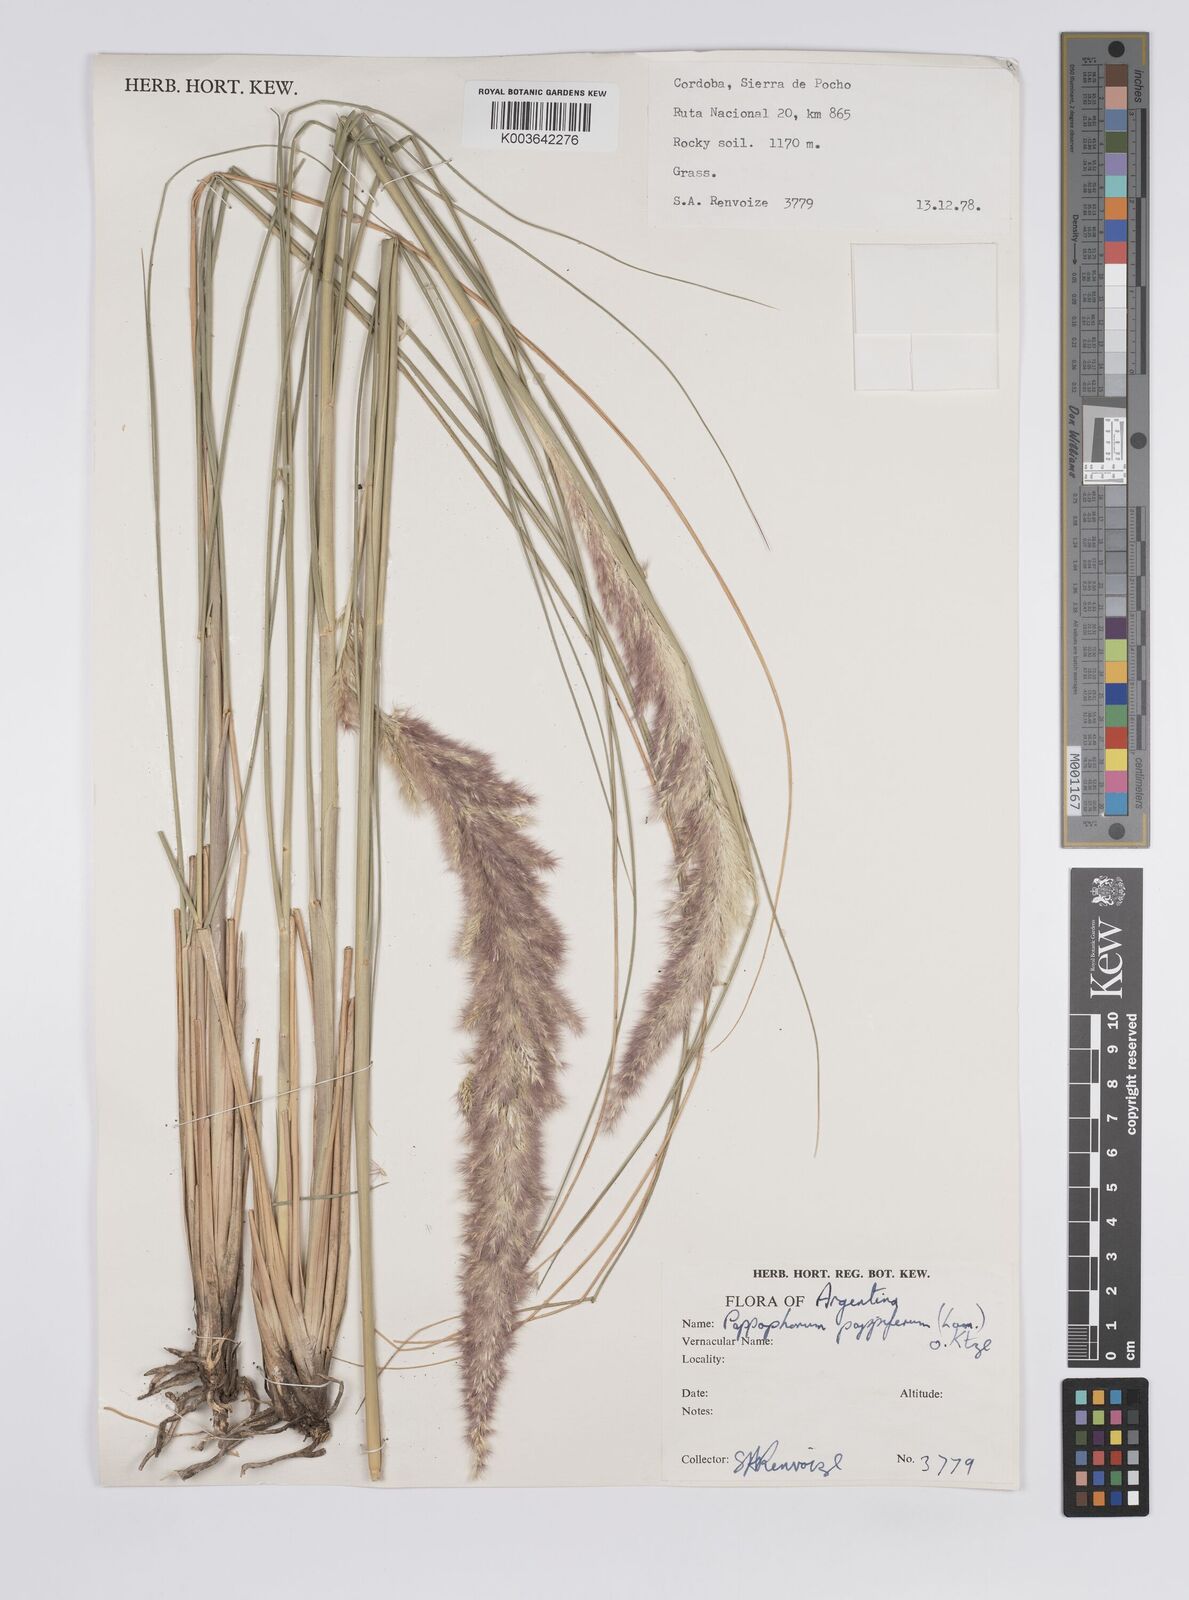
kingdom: Plantae
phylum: Tracheophyta
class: Liliopsida
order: Poales
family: Poaceae
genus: Pappophorum
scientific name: Pappophorum pappiferum
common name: Crabgrass
